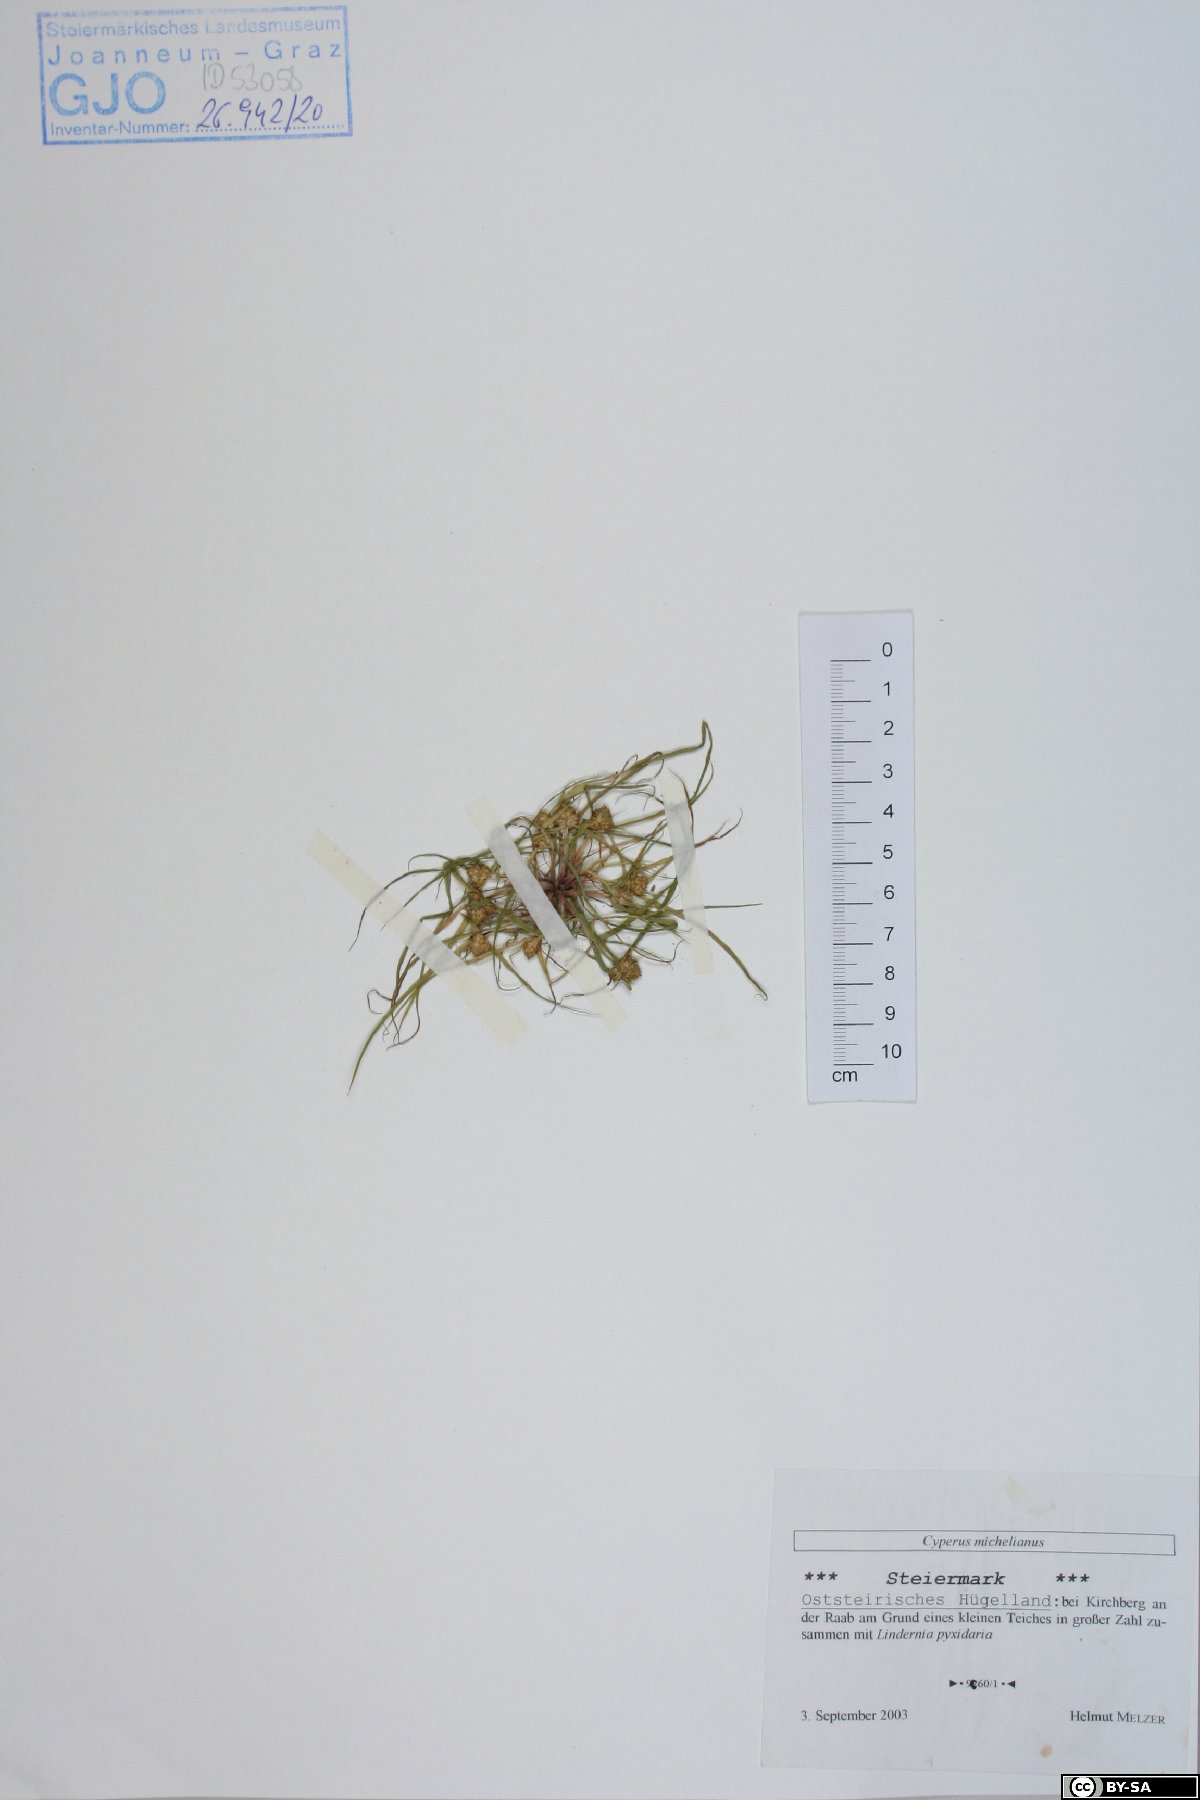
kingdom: Plantae
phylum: Tracheophyta
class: Liliopsida
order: Poales
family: Cyperaceae
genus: Cyperus
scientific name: Cyperus michelianus
